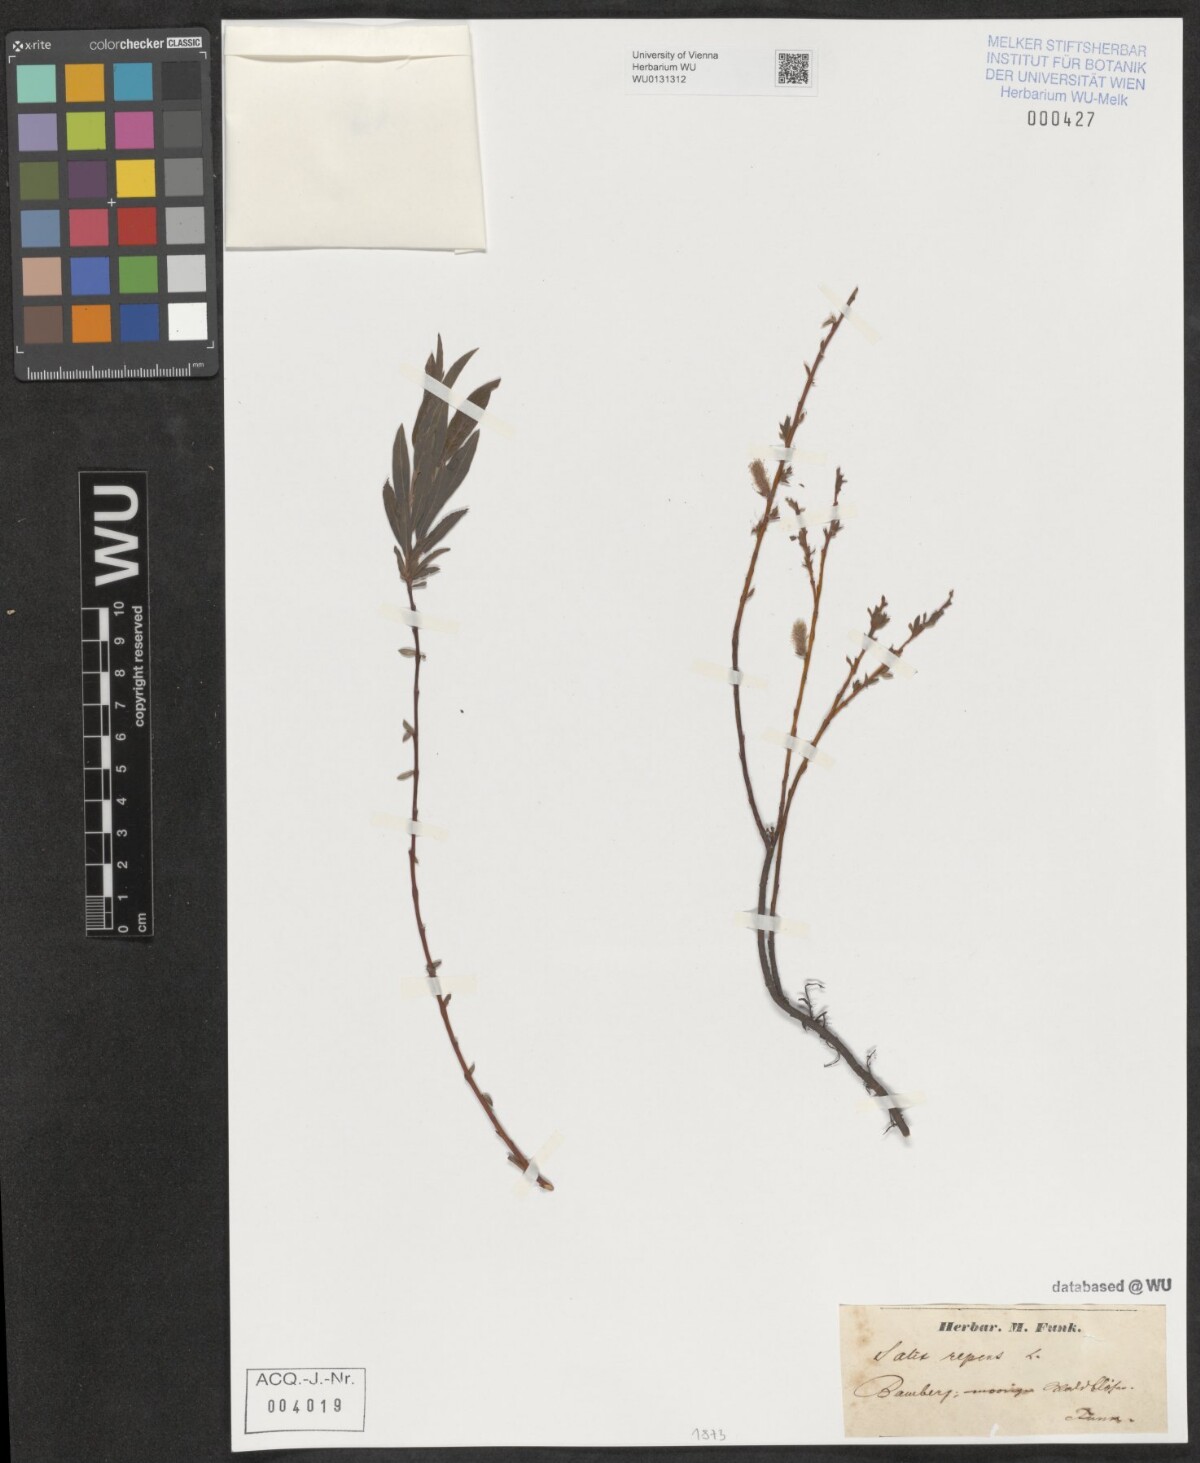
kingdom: Plantae
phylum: Tracheophyta
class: Magnoliopsida
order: Malpighiales
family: Salicaceae
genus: Salix
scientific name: Salix repens
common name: Creeping willow
